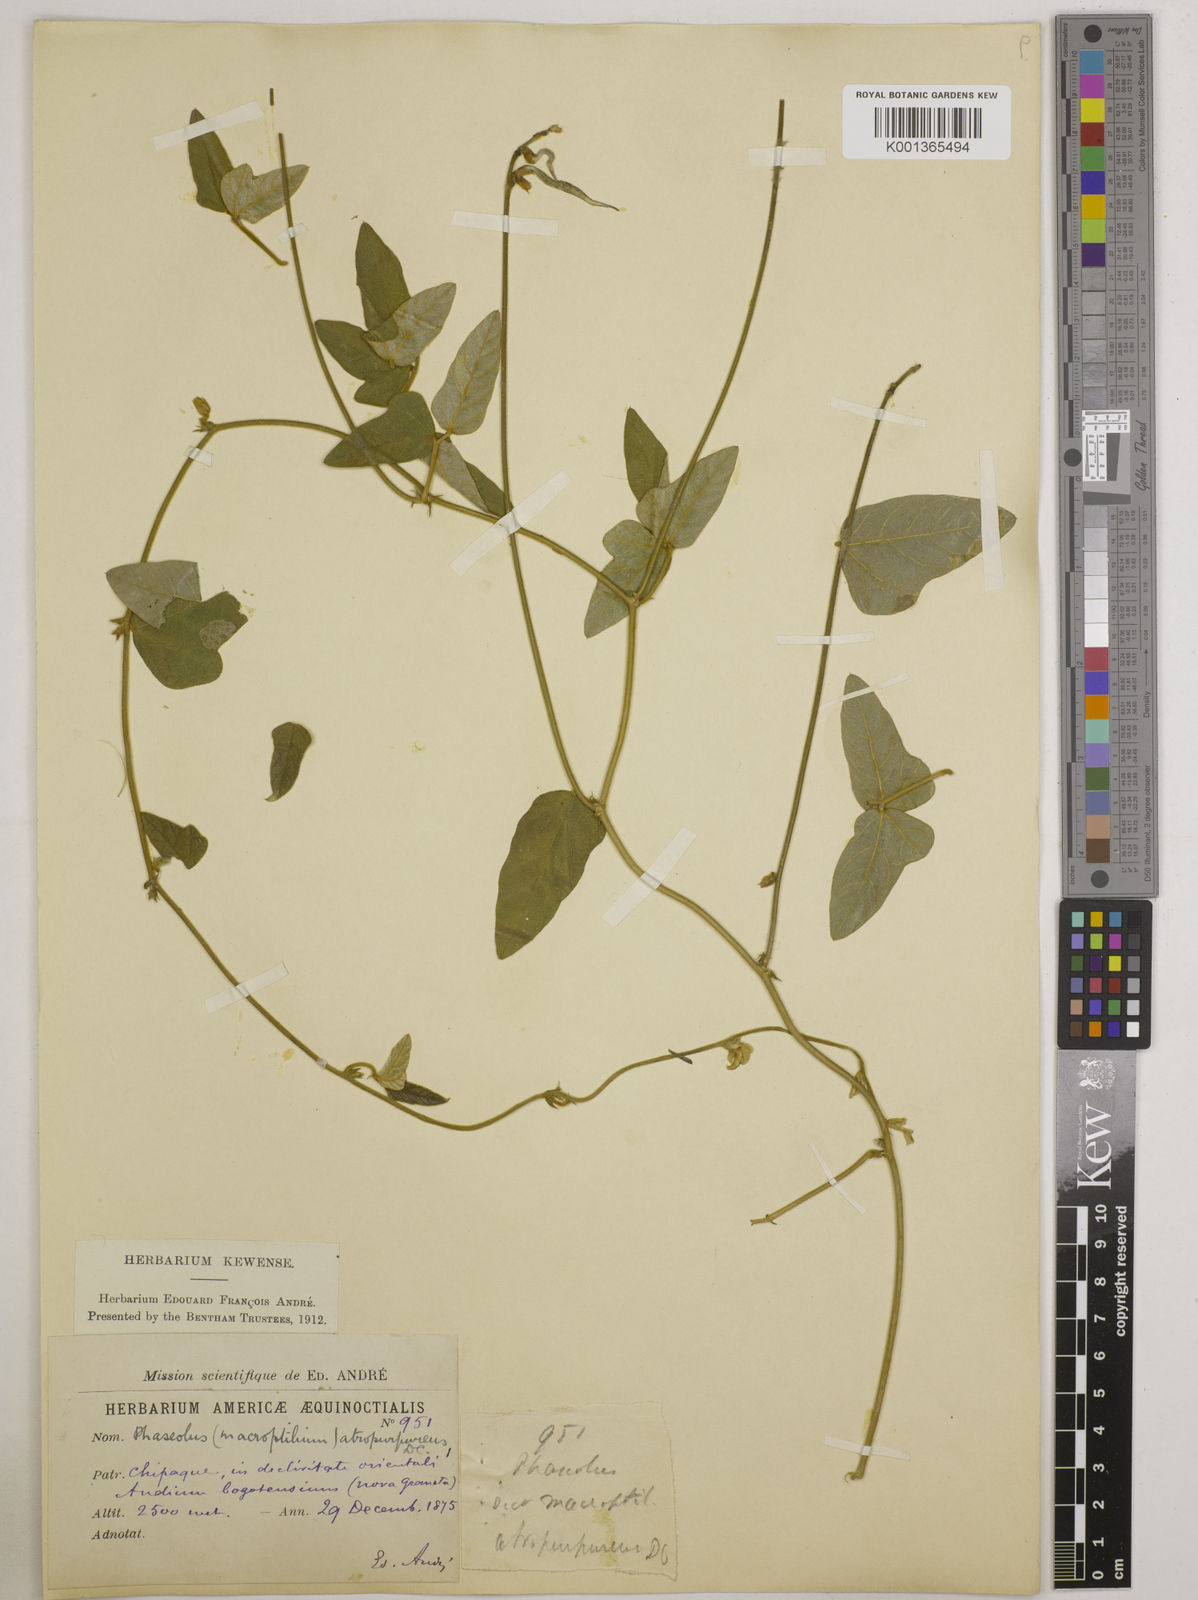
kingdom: Plantae
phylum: Tracheophyta
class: Magnoliopsida
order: Fabales
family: Fabaceae
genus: Macroptilium
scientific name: Macroptilium atropurpureum
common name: Purple bushbean
